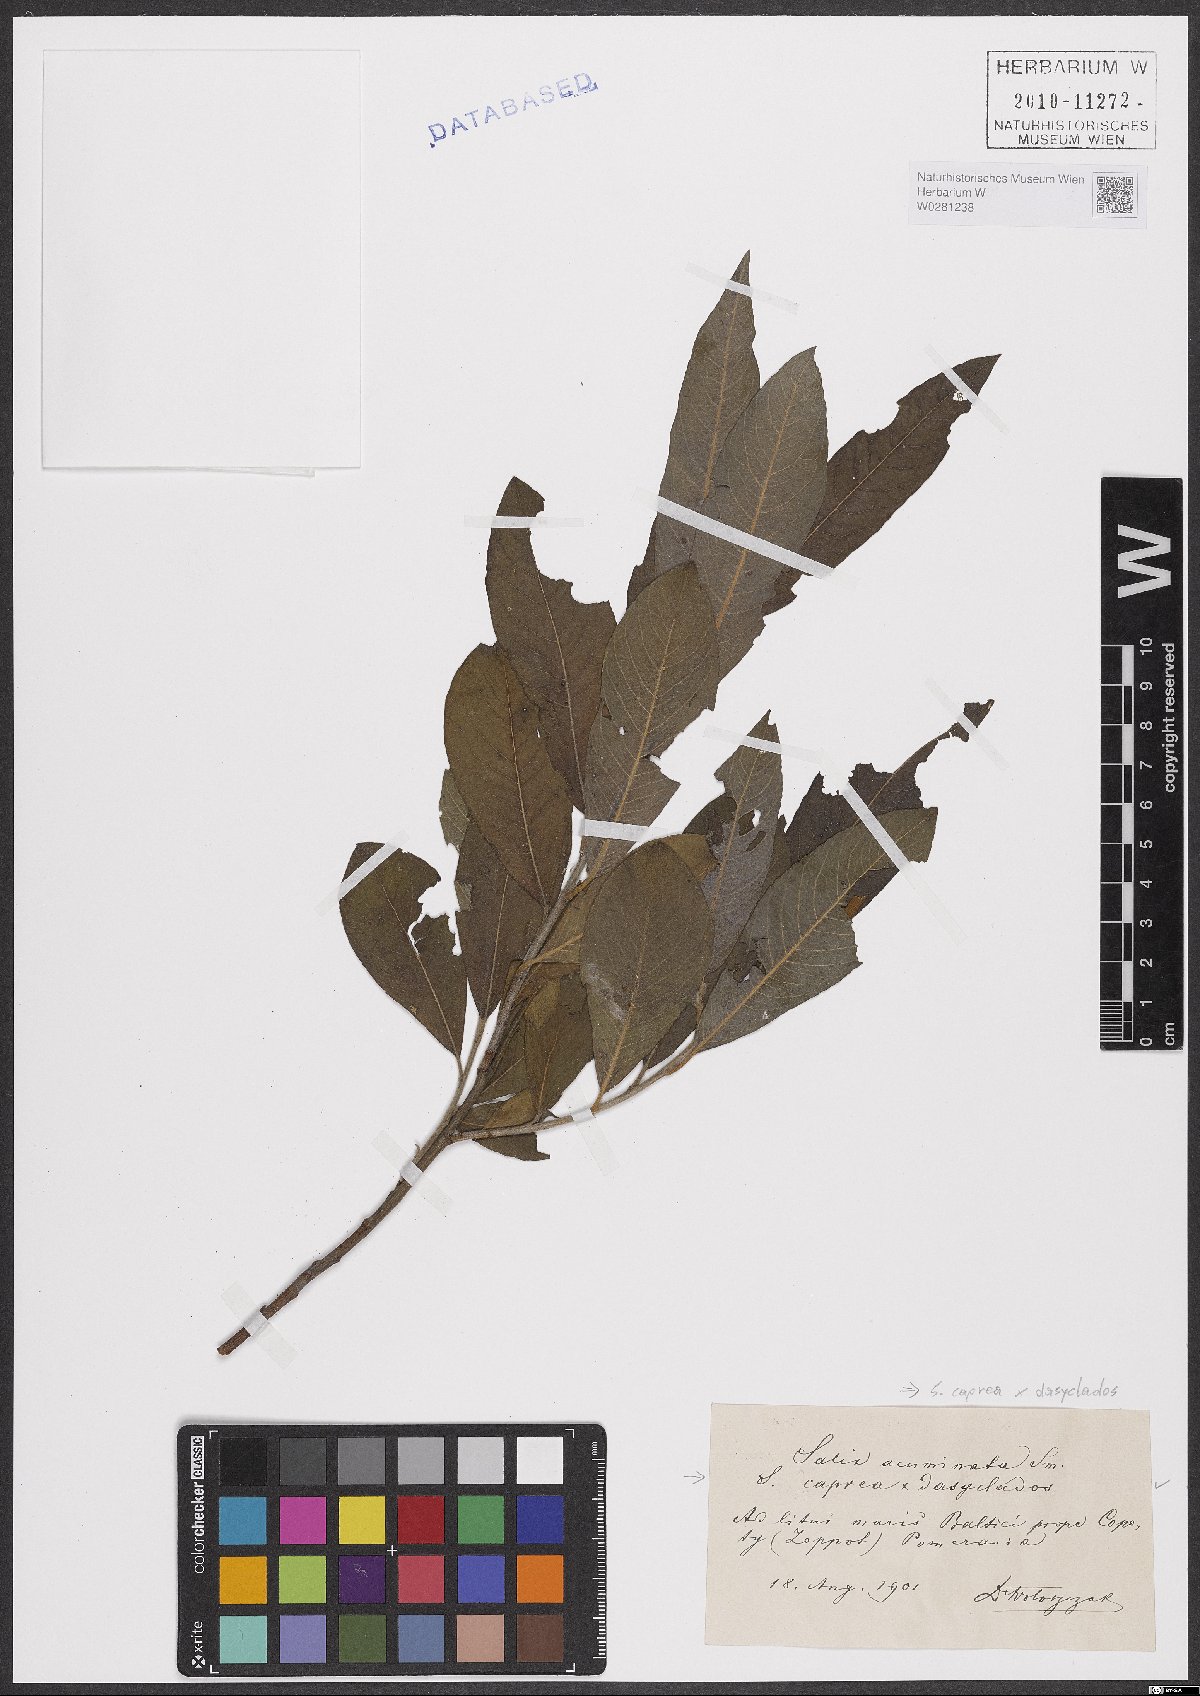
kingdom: Plantae
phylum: Tracheophyta
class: Magnoliopsida
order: Malpighiales
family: Salicaceae
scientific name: Salicaceae
